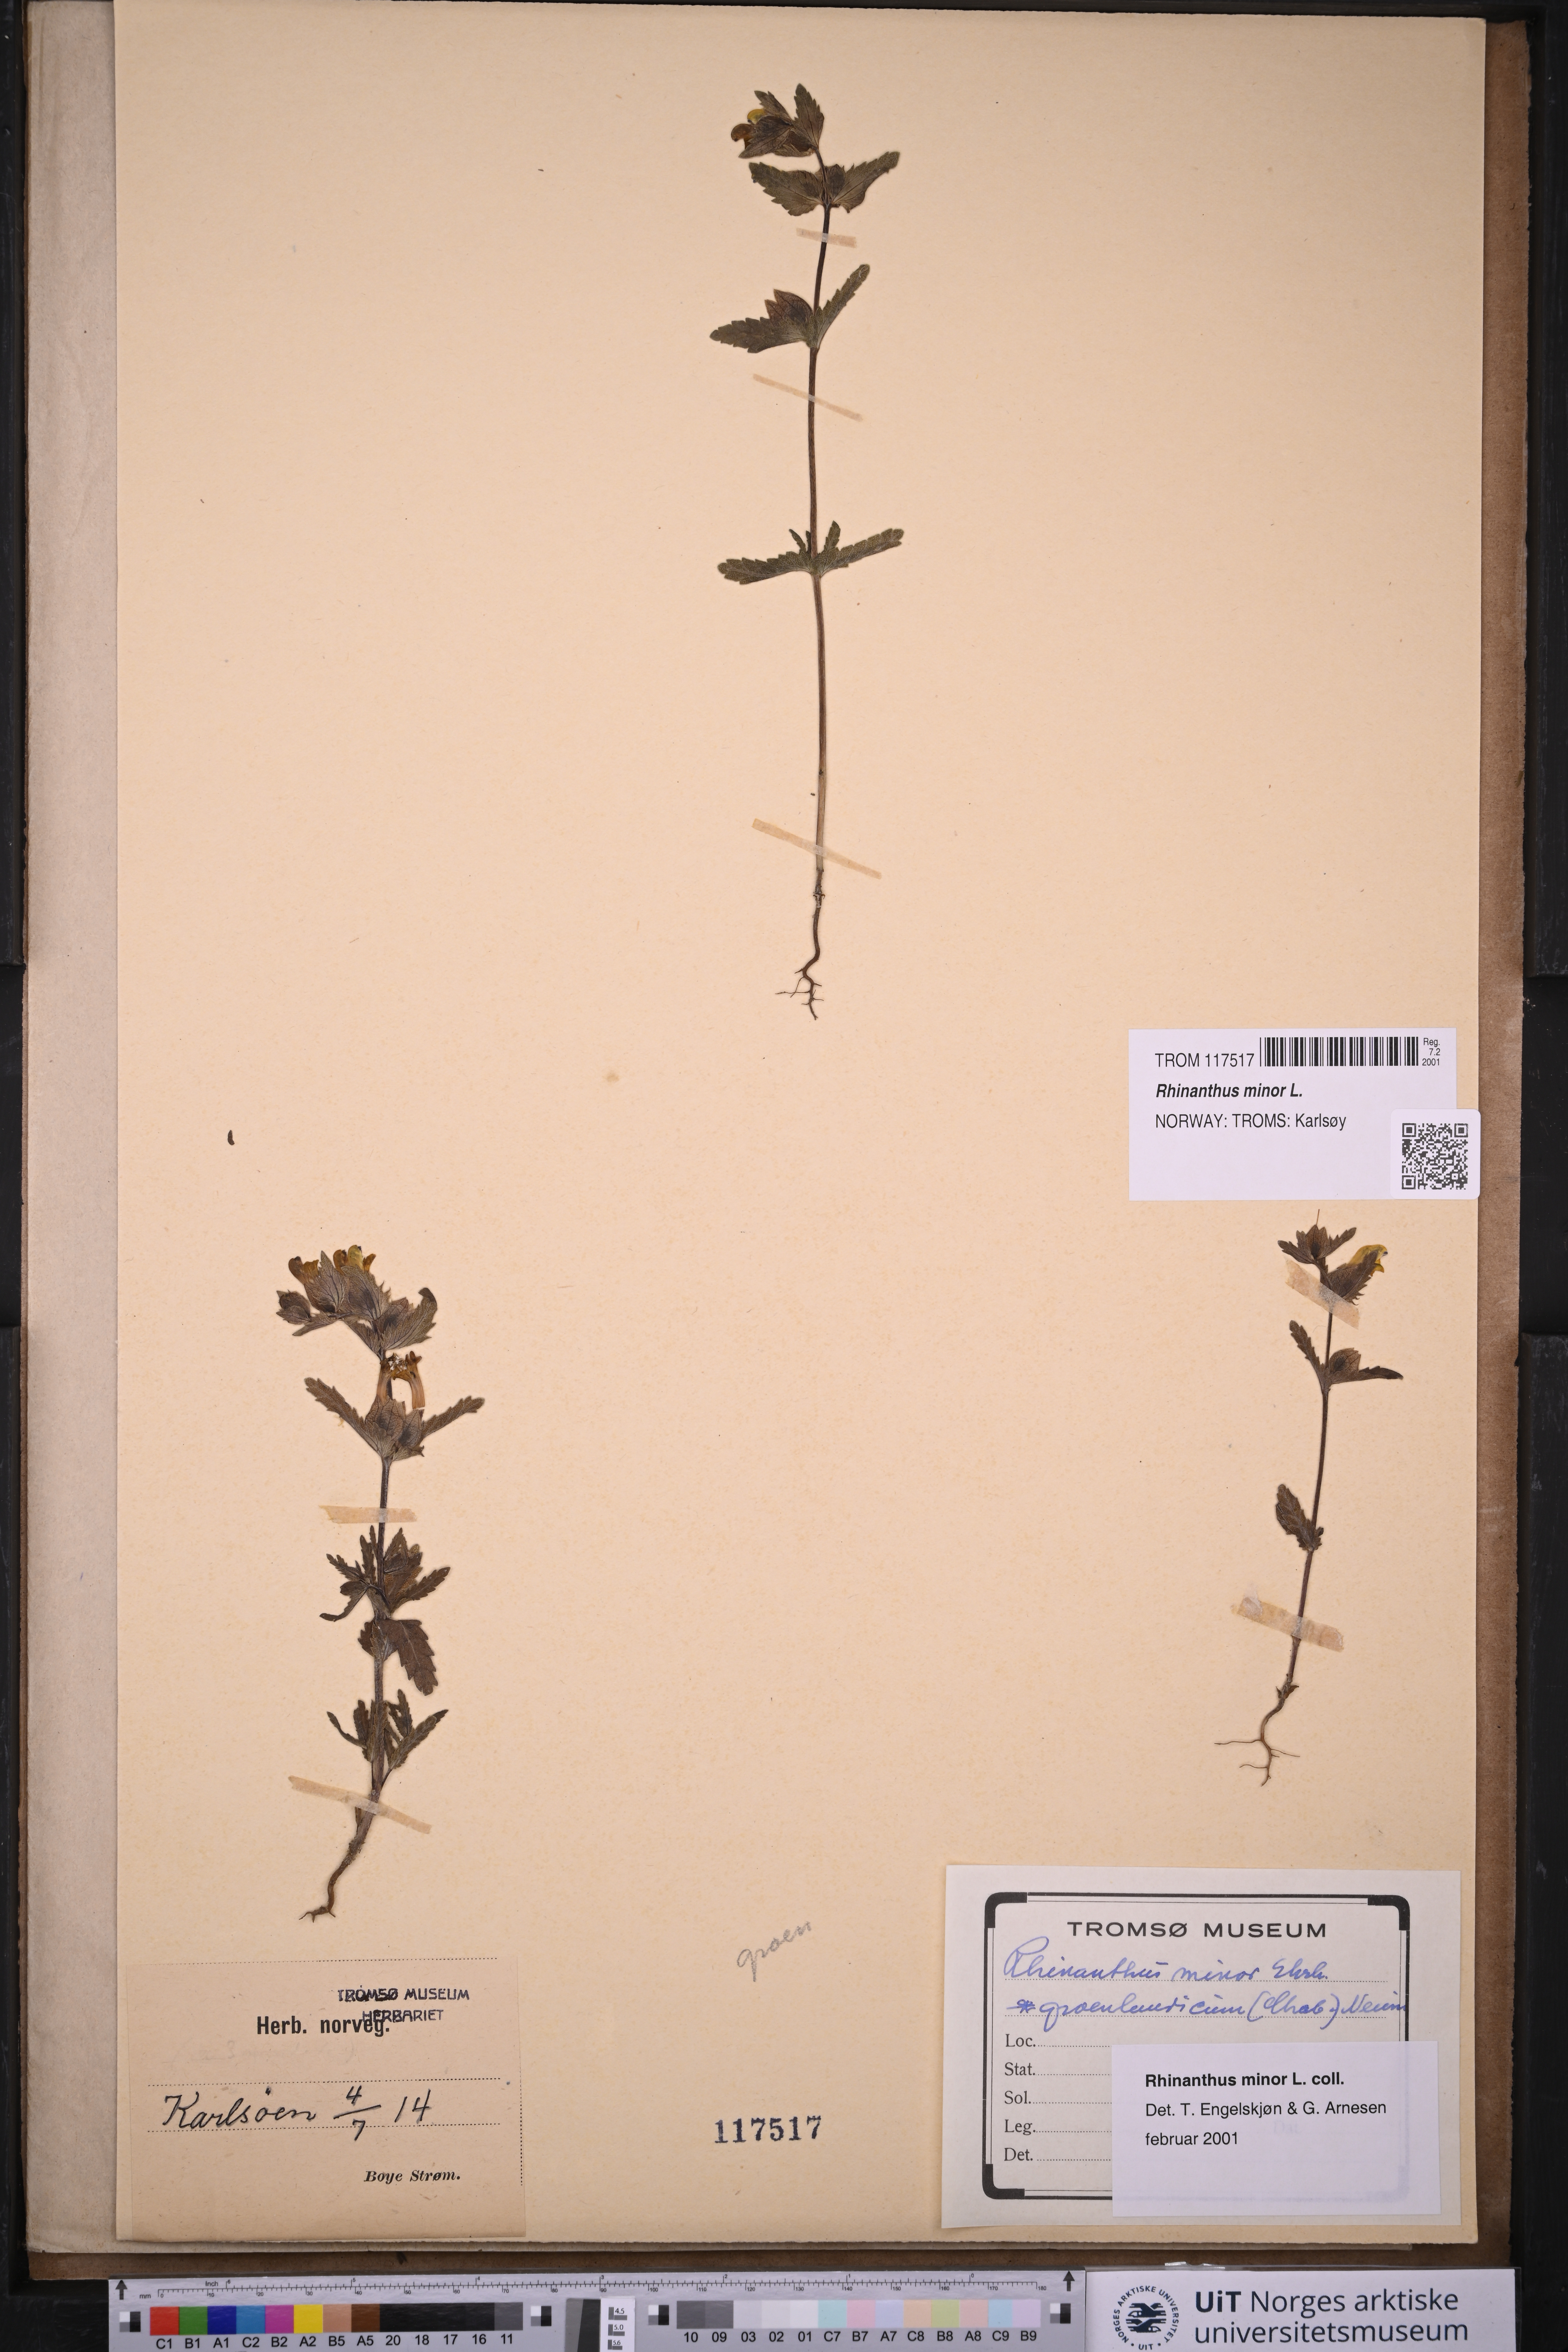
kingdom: Plantae
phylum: Tracheophyta
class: Magnoliopsida
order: Lamiales
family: Orobanchaceae
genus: Rhinanthus
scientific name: Rhinanthus minor
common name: Yellow-rattle
